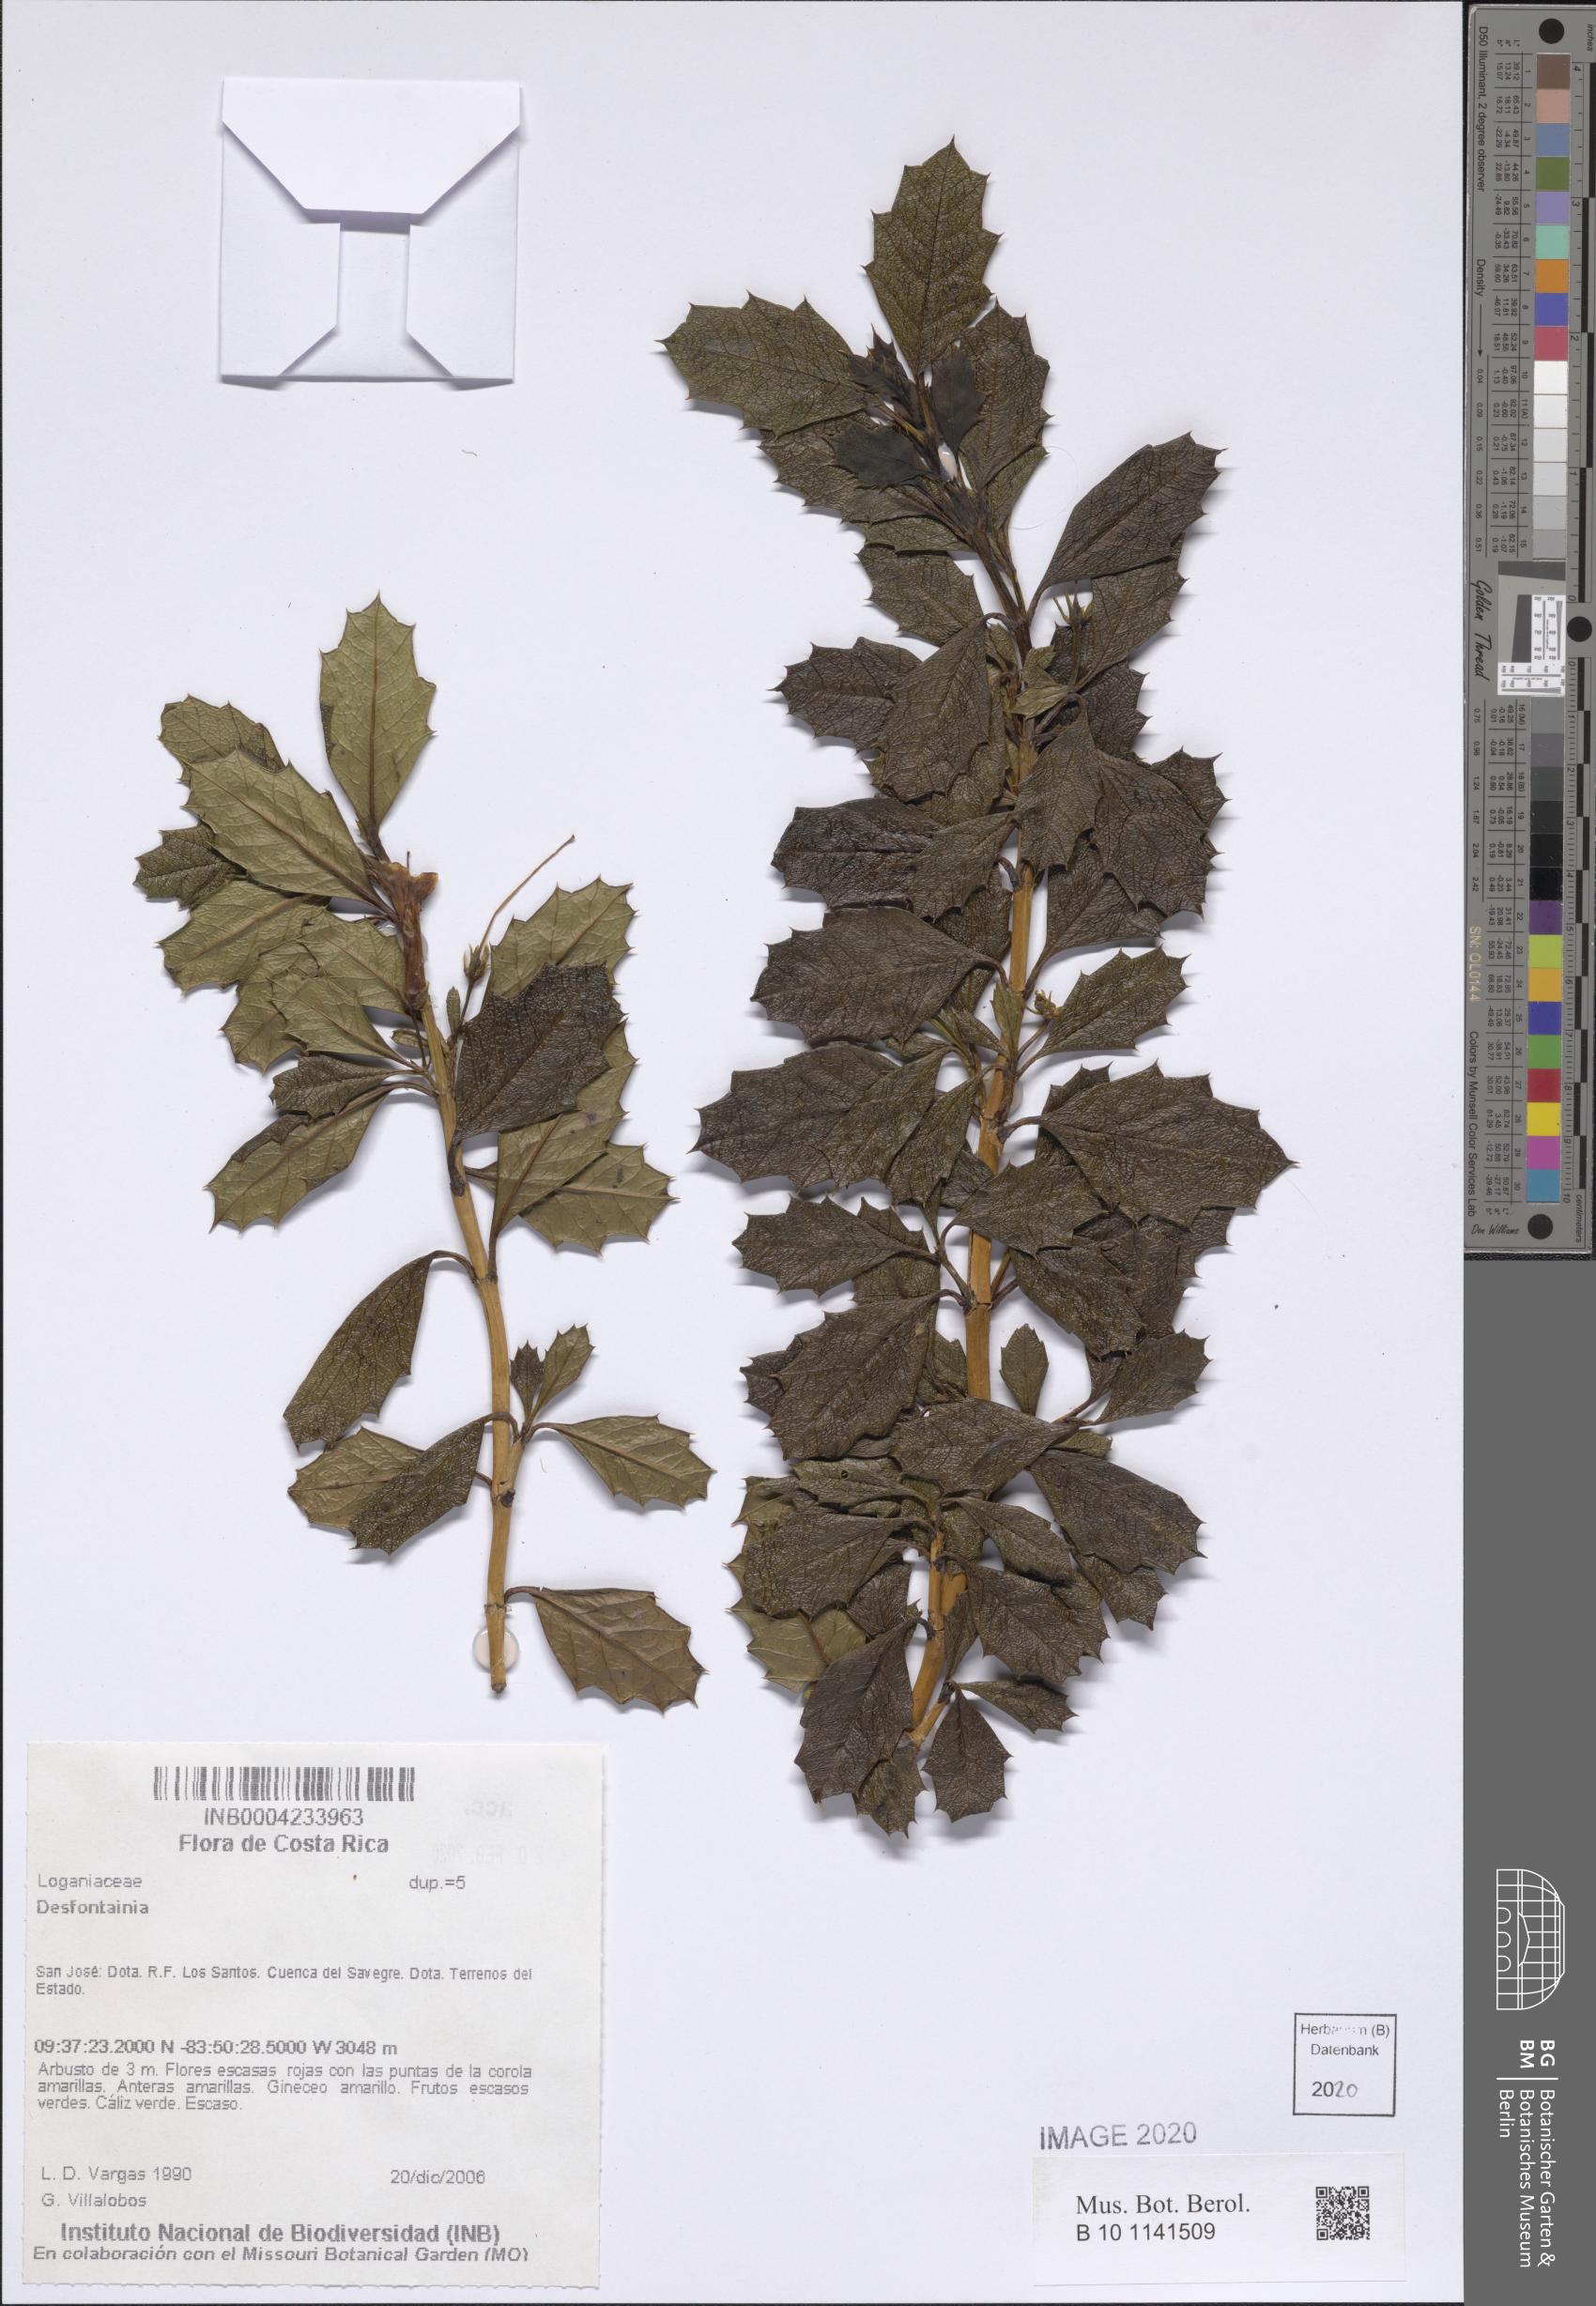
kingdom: Plantae
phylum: Tracheophyta
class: Magnoliopsida
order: Bruniales
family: Columelliaceae
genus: Desfontainia
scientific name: Desfontainia
